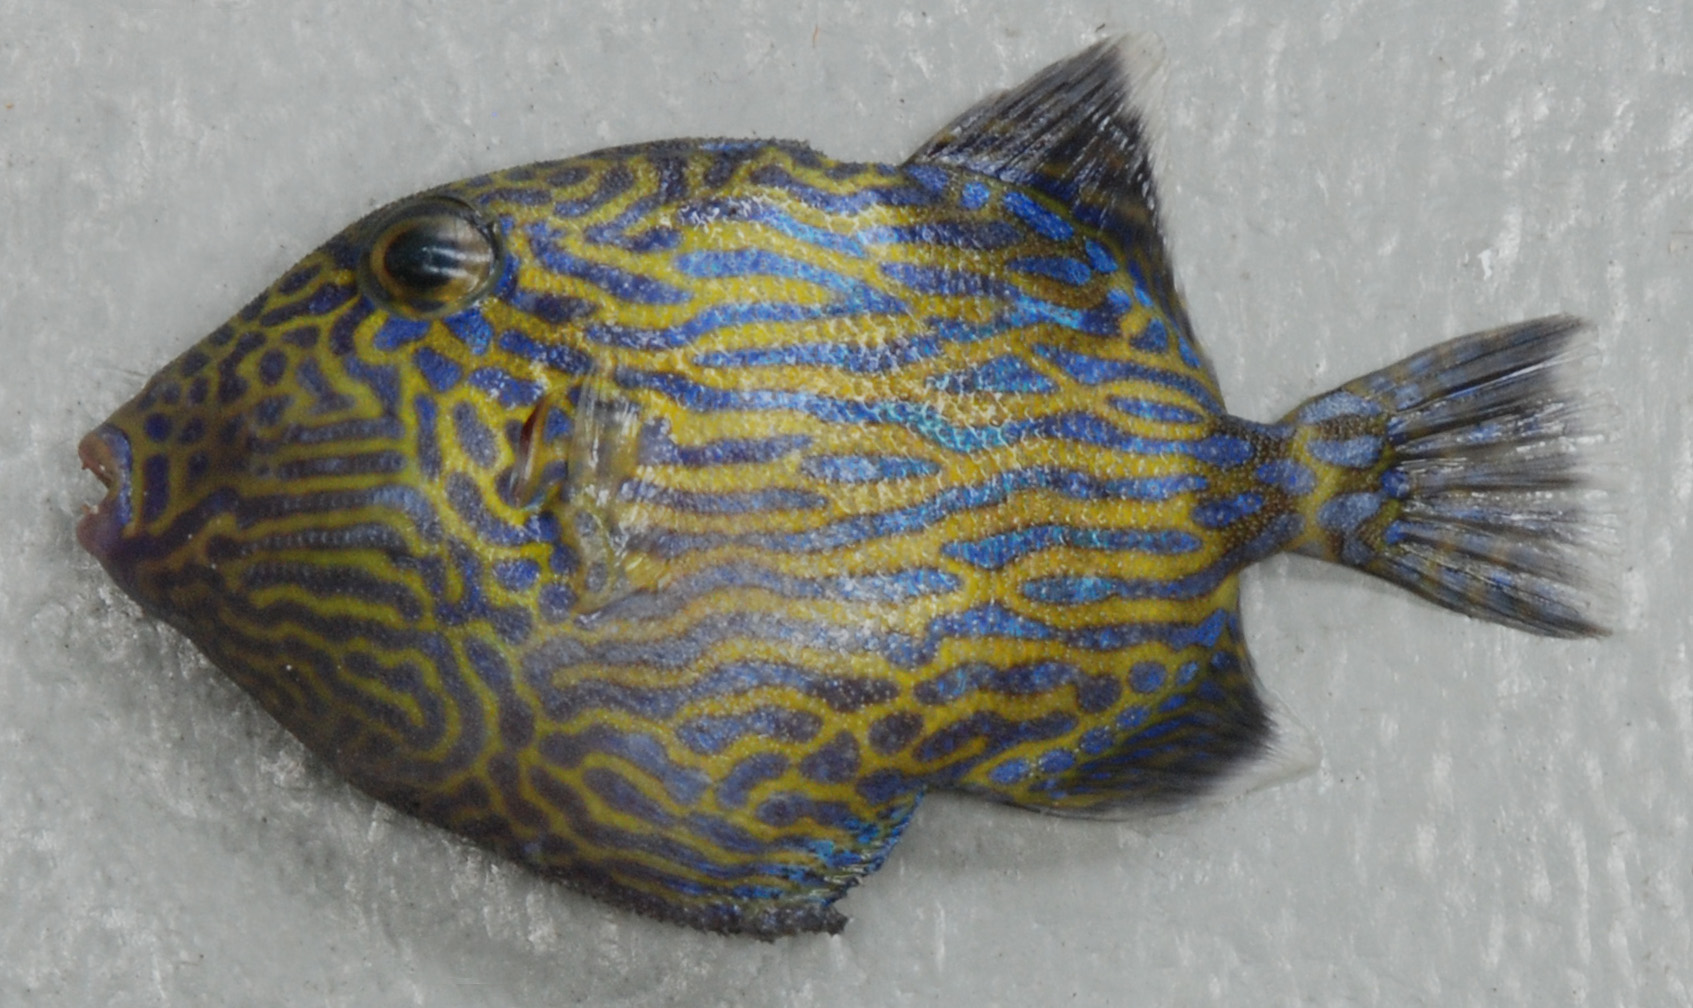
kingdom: Animalia
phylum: Chordata
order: Tetraodontiformes
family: Balistidae
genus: Pseudobalistes
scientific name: Pseudobalistes fuscus
